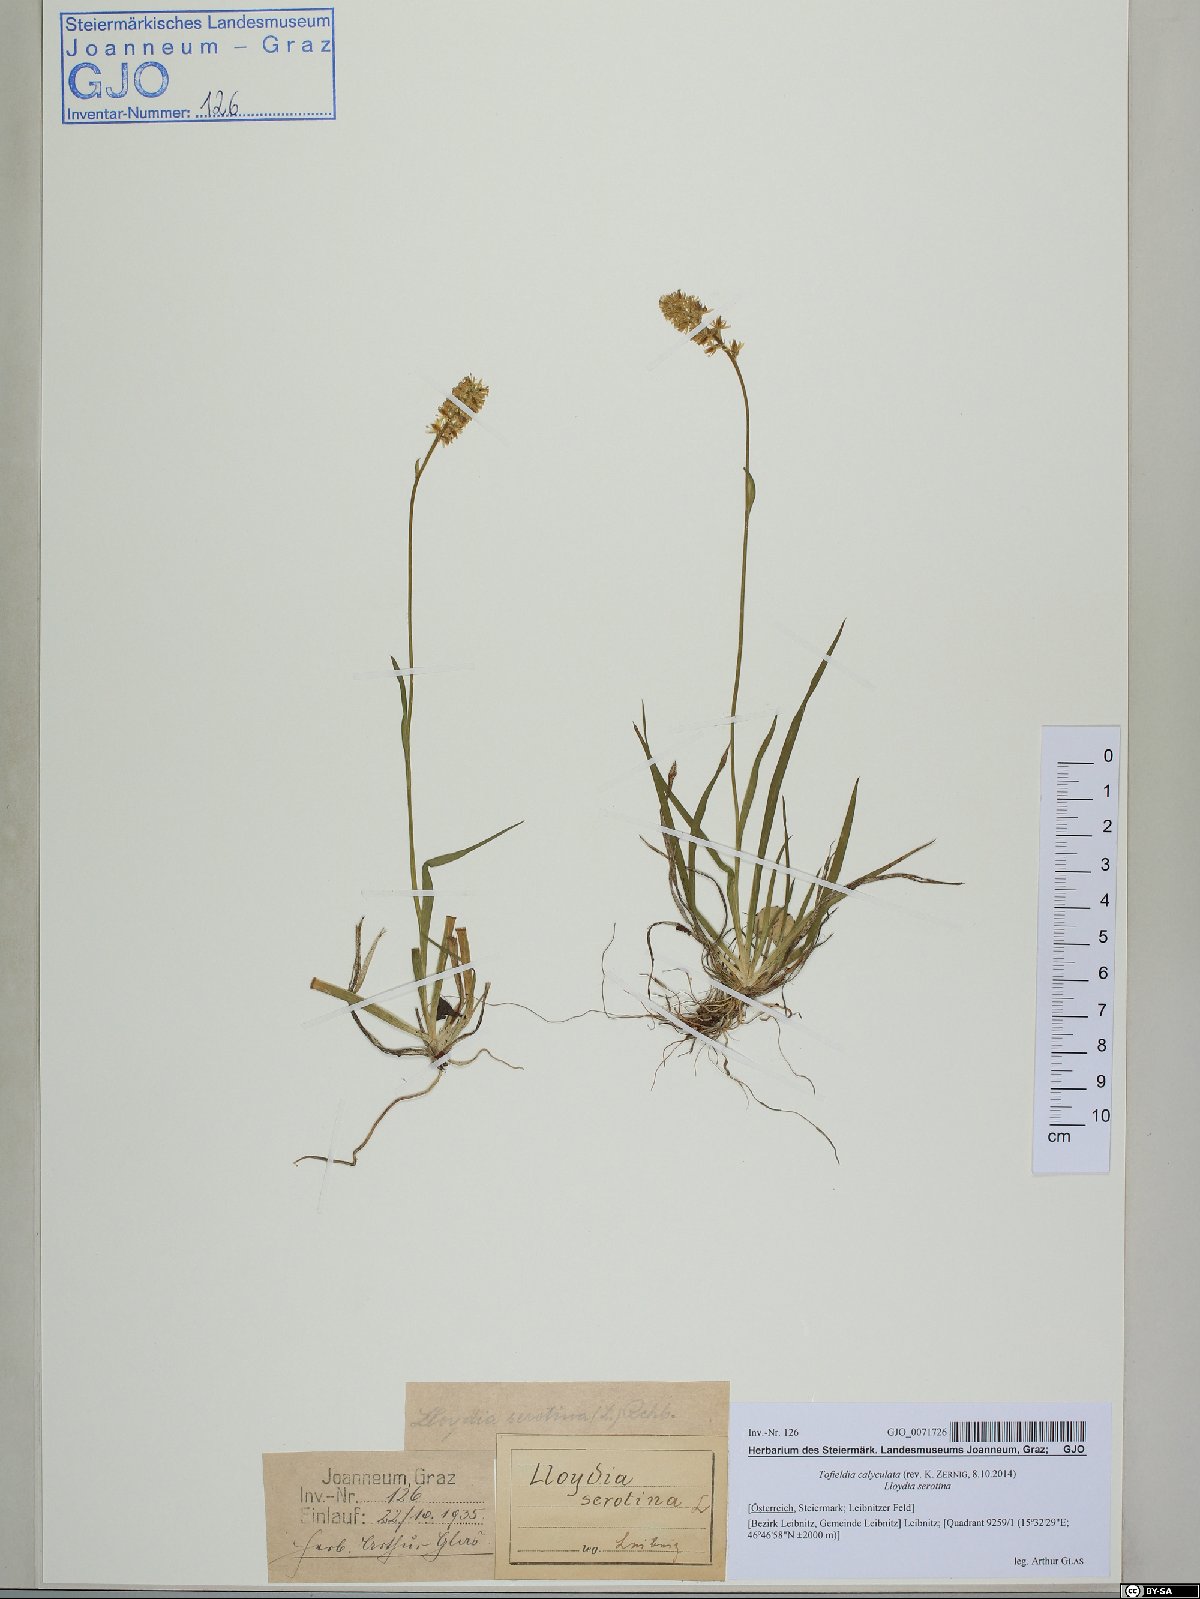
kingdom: Plantae
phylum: Tracheophyta
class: Liliopsida
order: Alismatales
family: Tofieldiaceae
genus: Tofieldia
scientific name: Tofieldia calyculata
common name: German-asphodel
